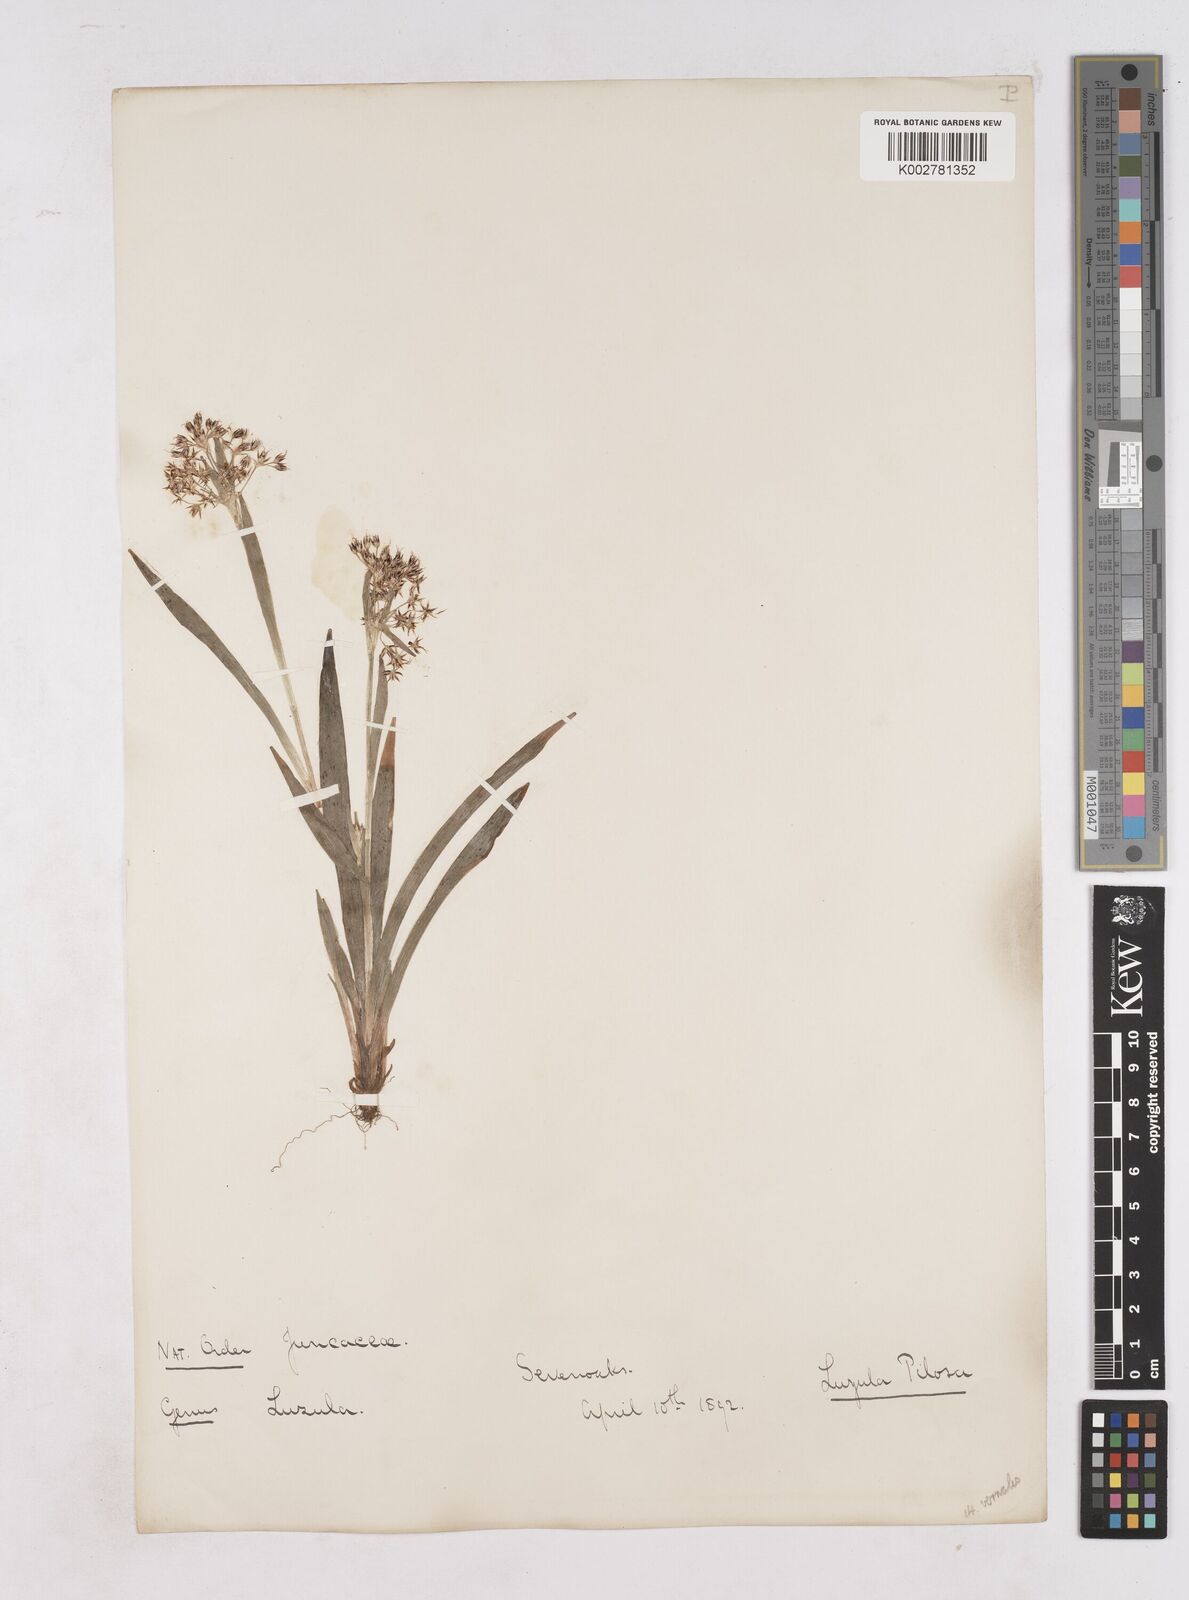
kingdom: Plantae
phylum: Tracheophyta
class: Liliopsida
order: Poales
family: Juncaceae
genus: Luzula
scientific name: Luzula pilosa
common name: Hairy wood-rush
